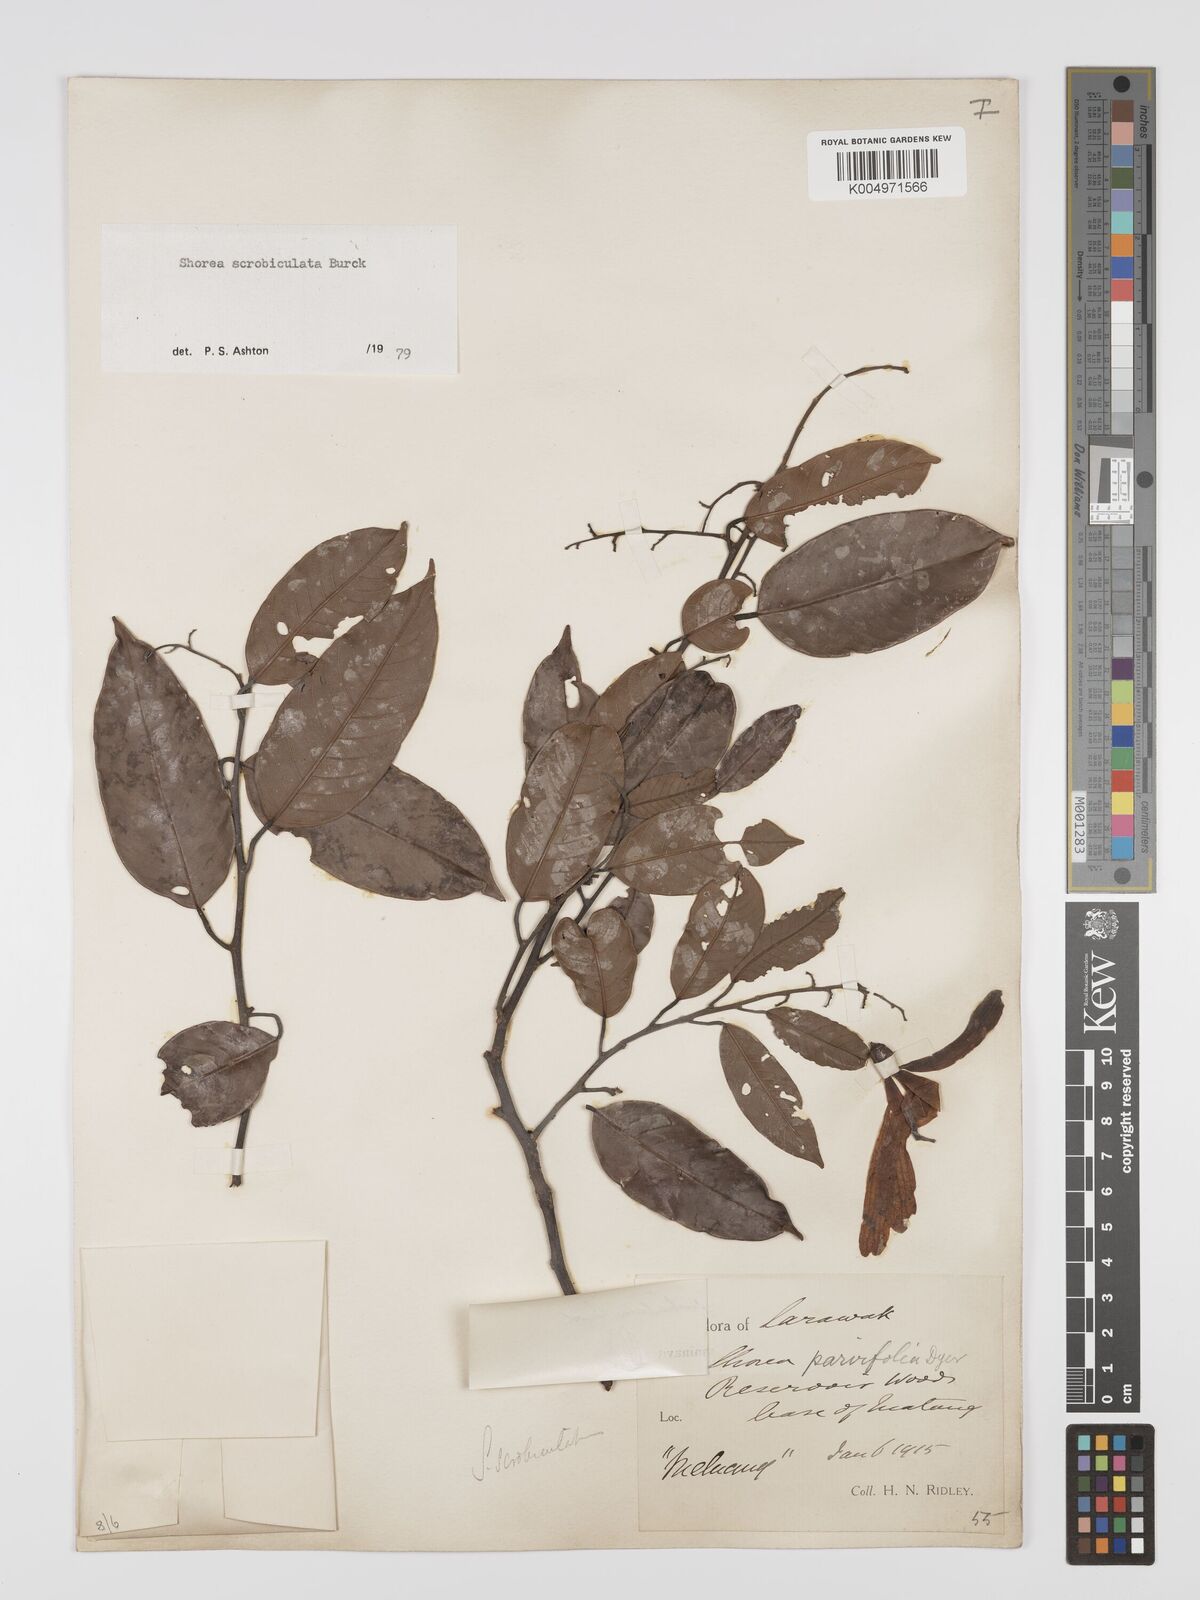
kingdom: Plantae
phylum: Tracheophyta
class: Magnoliopsida
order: Malvales
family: Dipterocarpaceae
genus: Shorea
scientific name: Shorea scrobiculata
